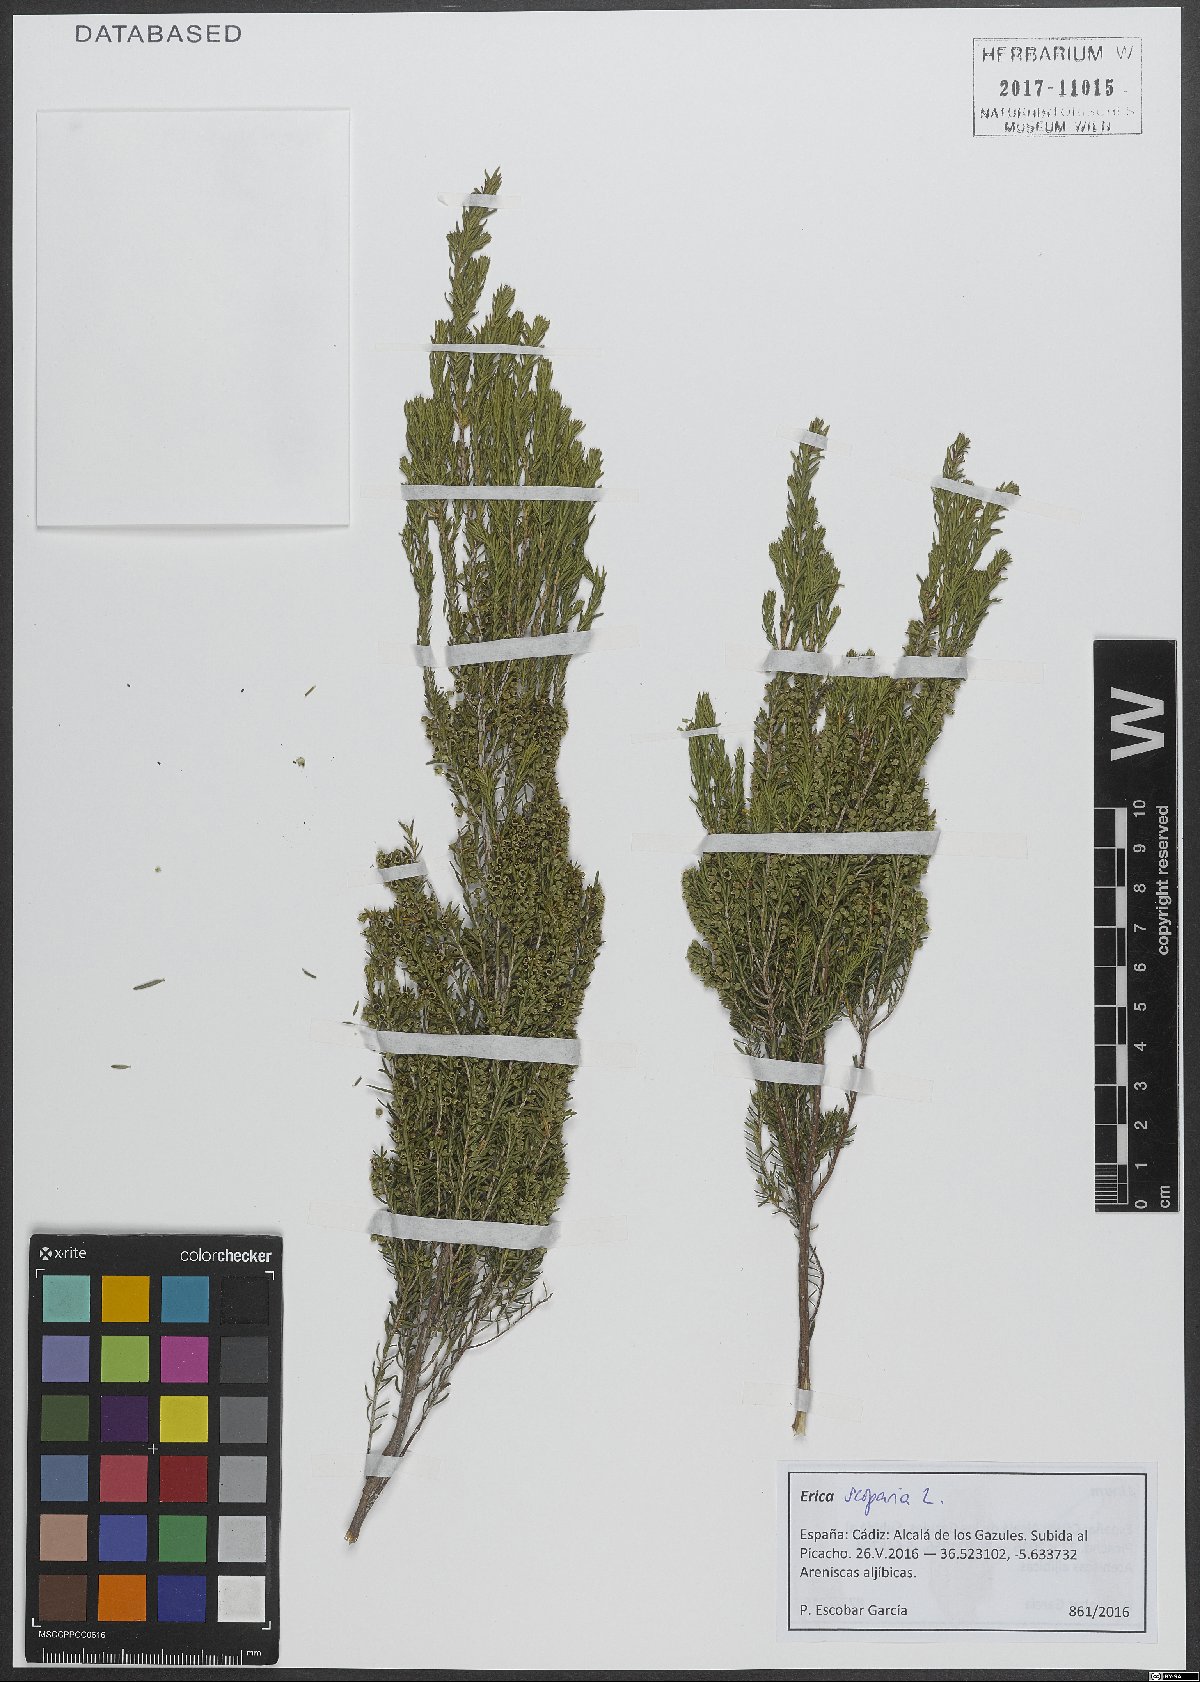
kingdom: Plantae
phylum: Tracheophyta
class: Magnoliopsida
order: Ericales
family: Ericaceae
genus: Erica
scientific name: Erica scoparia
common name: Green heather
